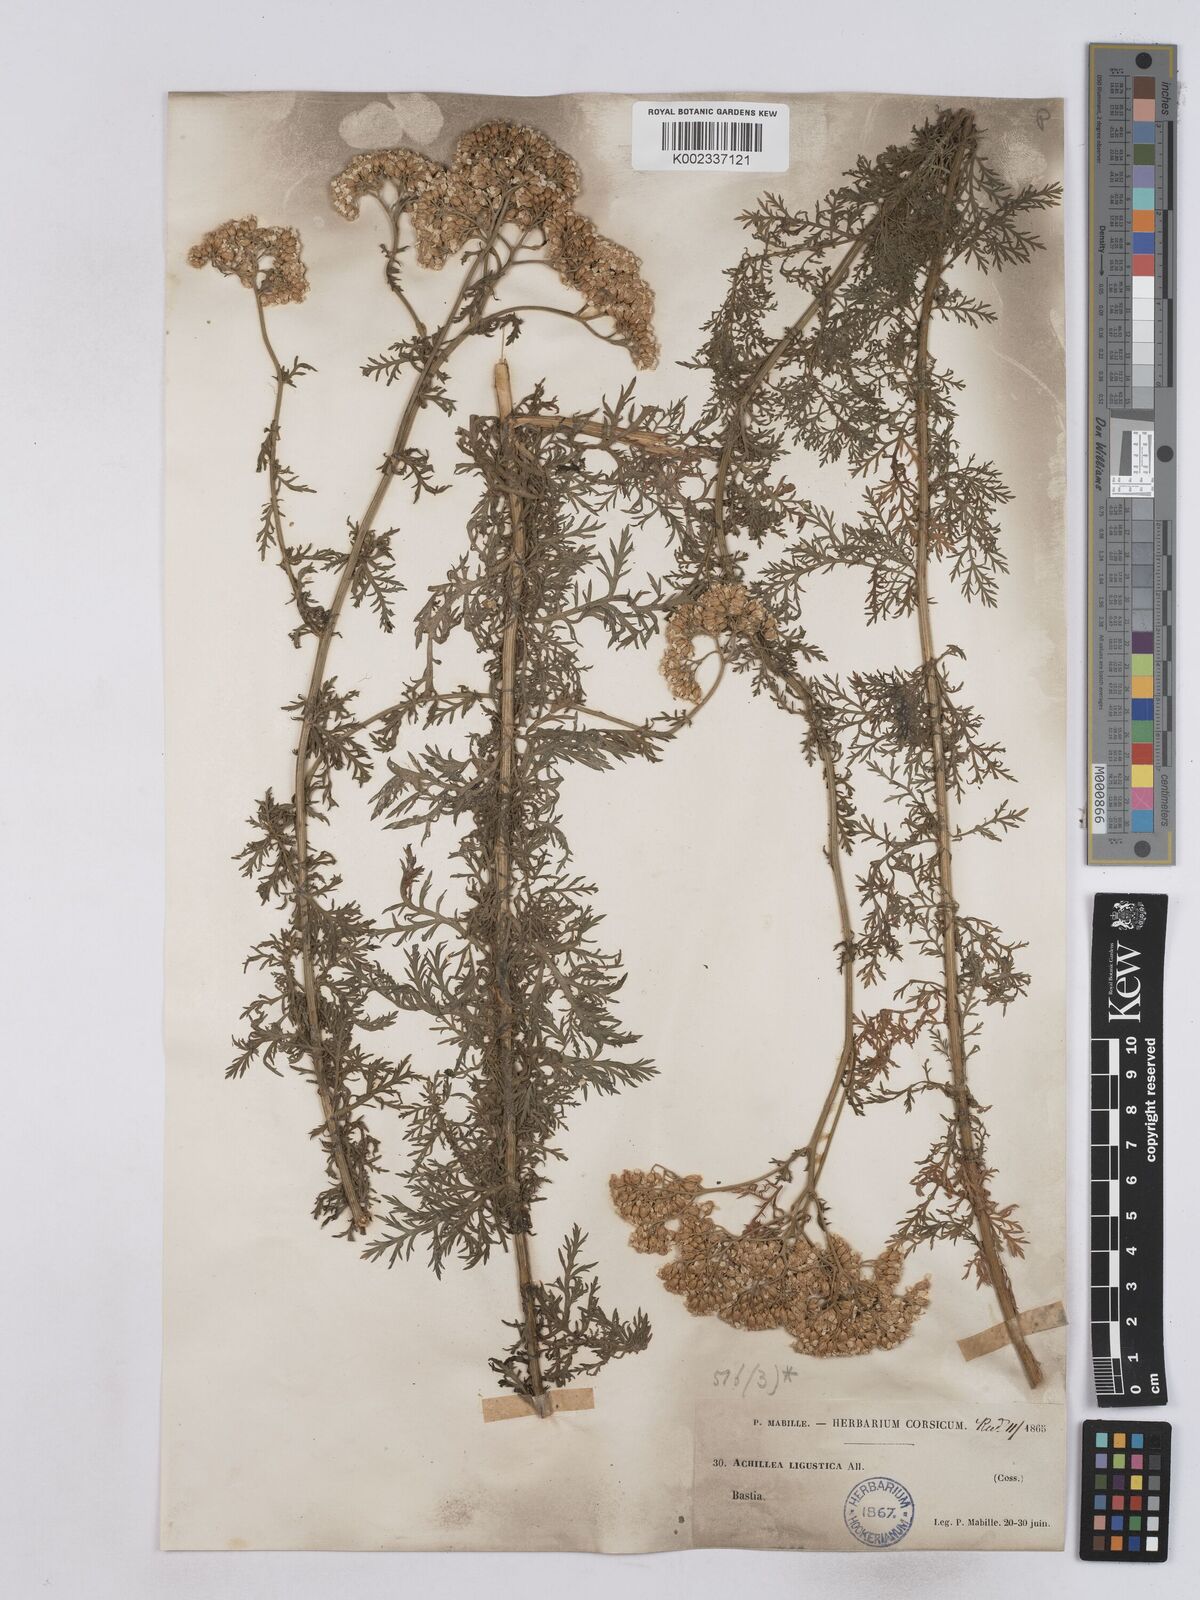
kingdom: Plantae
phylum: Tracheophyta
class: Magnoliopsida
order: Asterales
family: Asteraceae
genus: Achillea
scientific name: Achillea ligustica
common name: Southern yarrow
